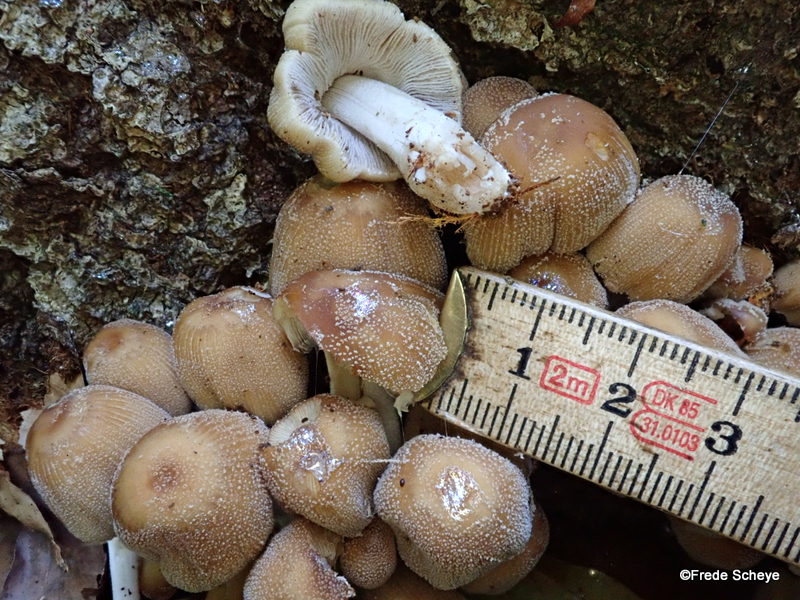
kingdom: Fungi
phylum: Basidiomycota
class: Agaricomycetes
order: Agaricales
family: Psathyrellaceae
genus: Coprinellus
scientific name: Coprinellus micaceus
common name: glimmer-blækhat
